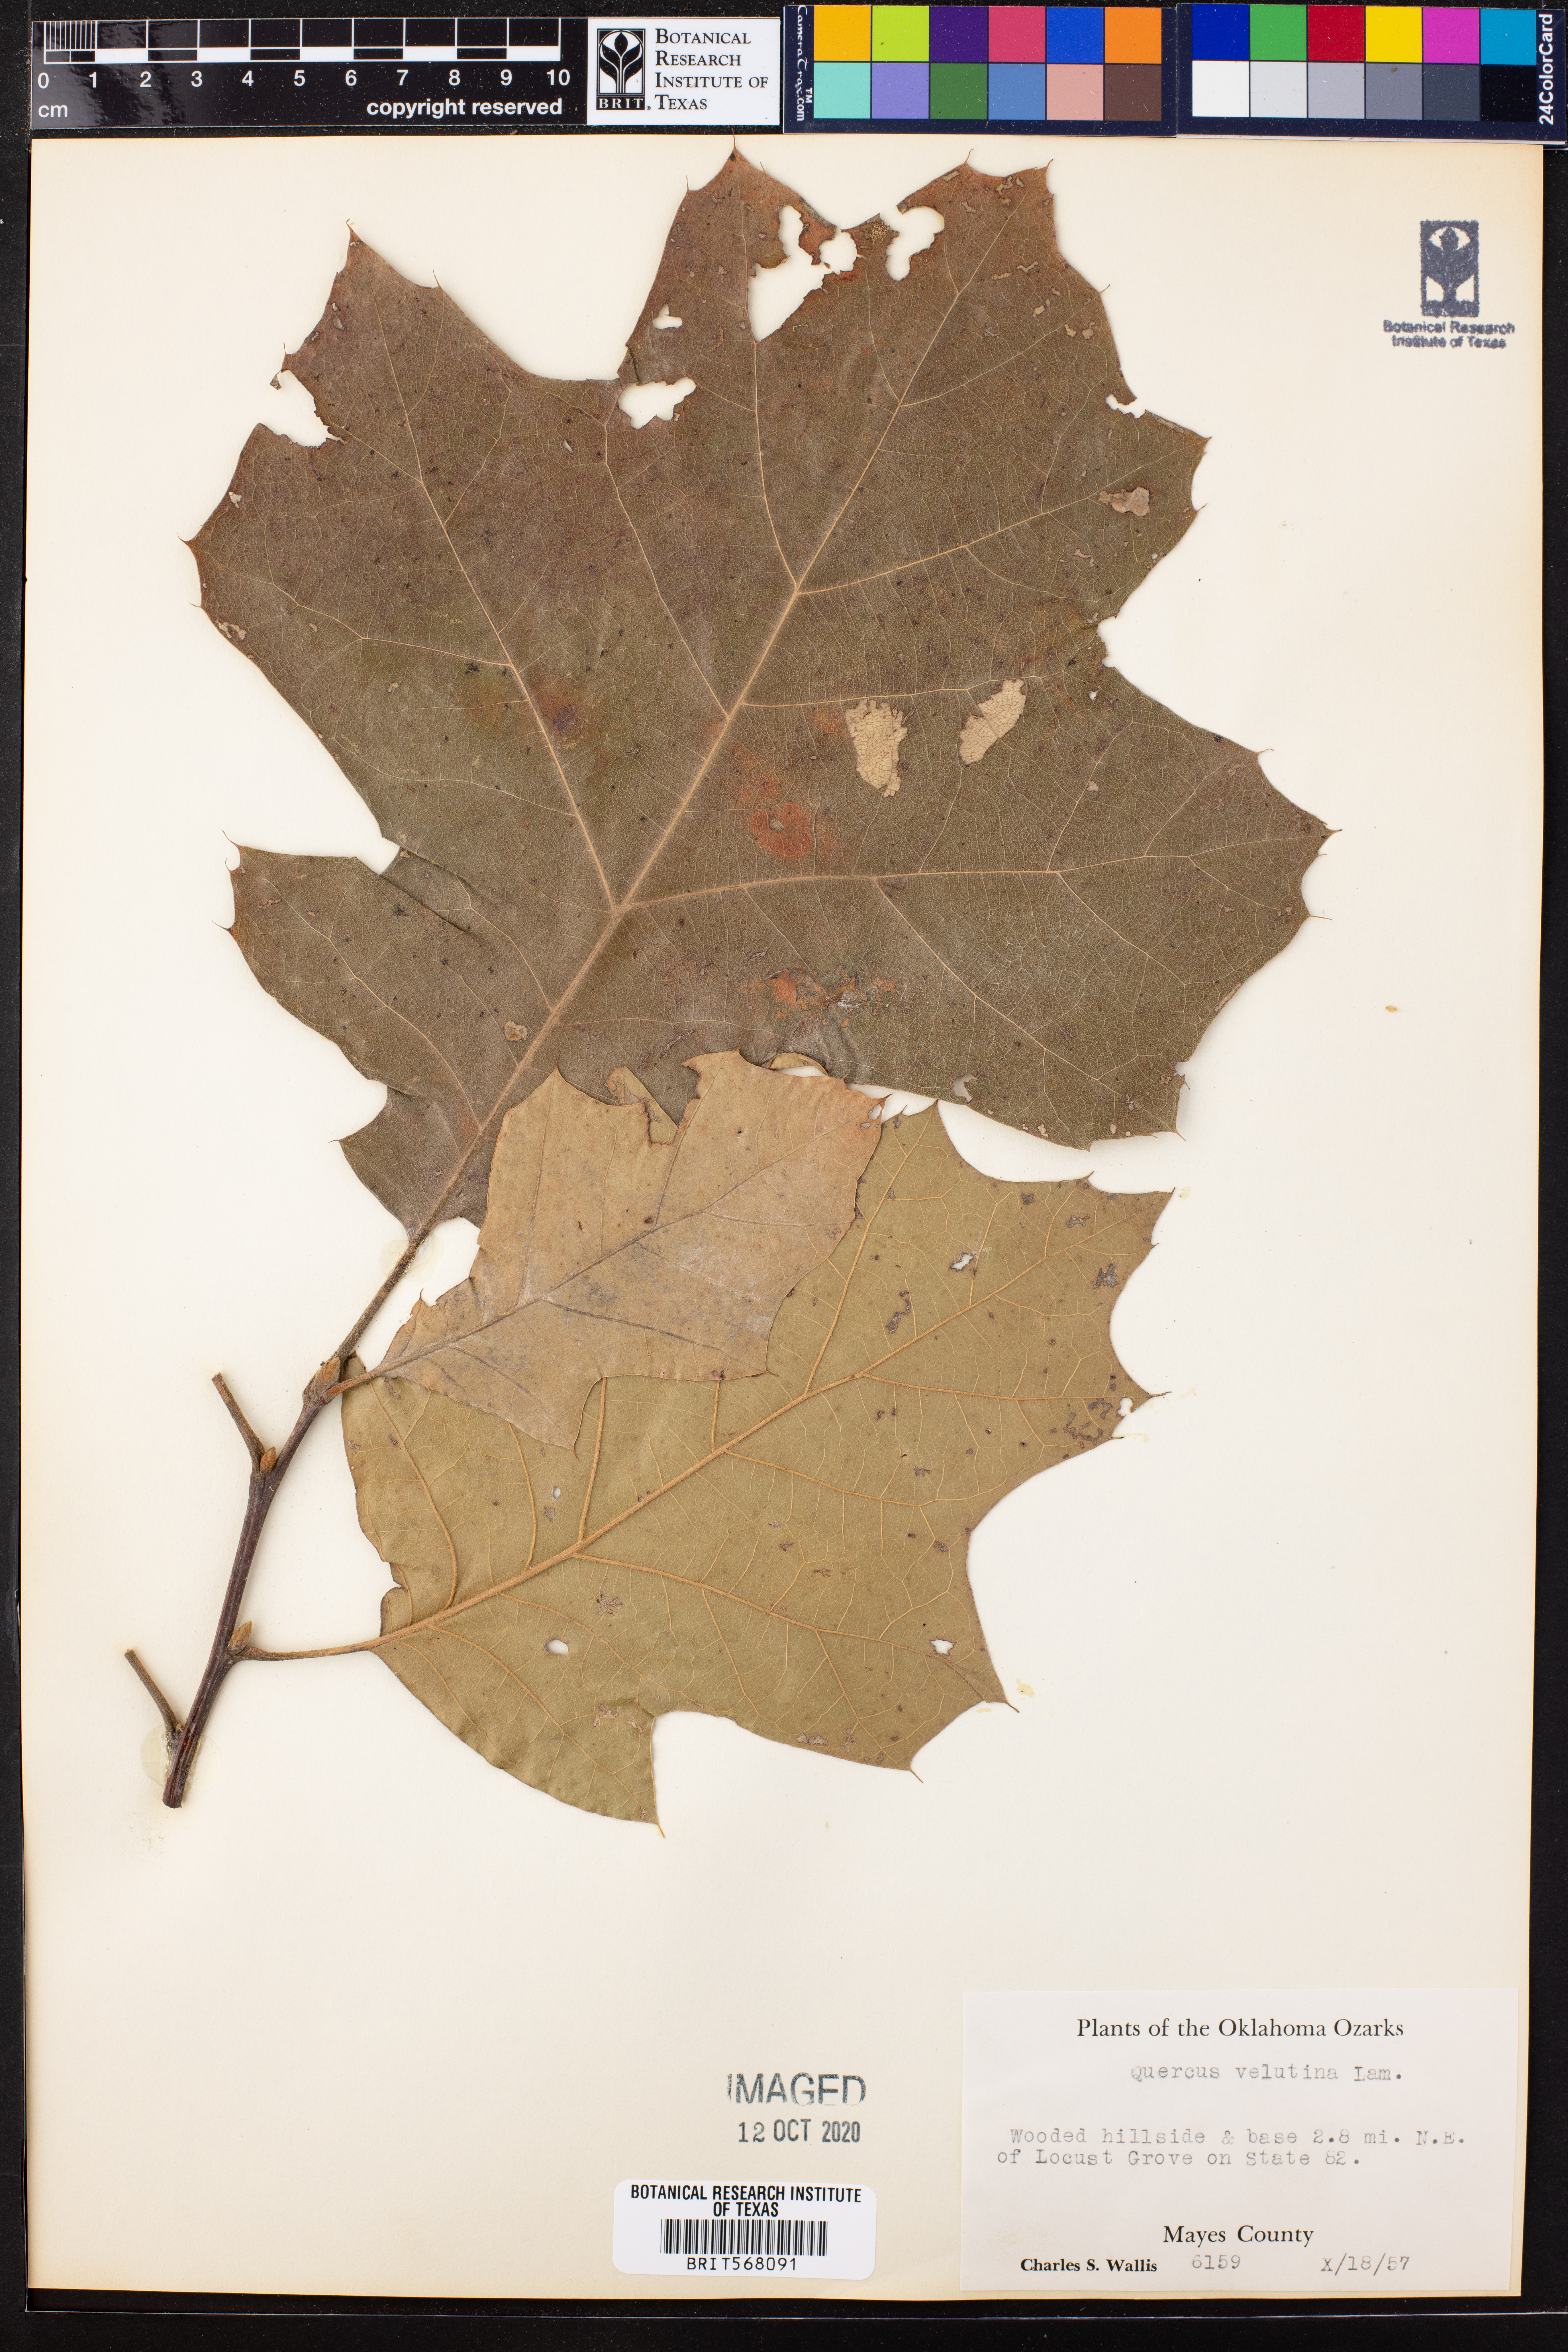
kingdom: Plantae
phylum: Tracheophyta
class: Magnoliopsida
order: Fagales
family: Fagaceae
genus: Quercus
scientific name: Quercus velutina
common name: Black oak
